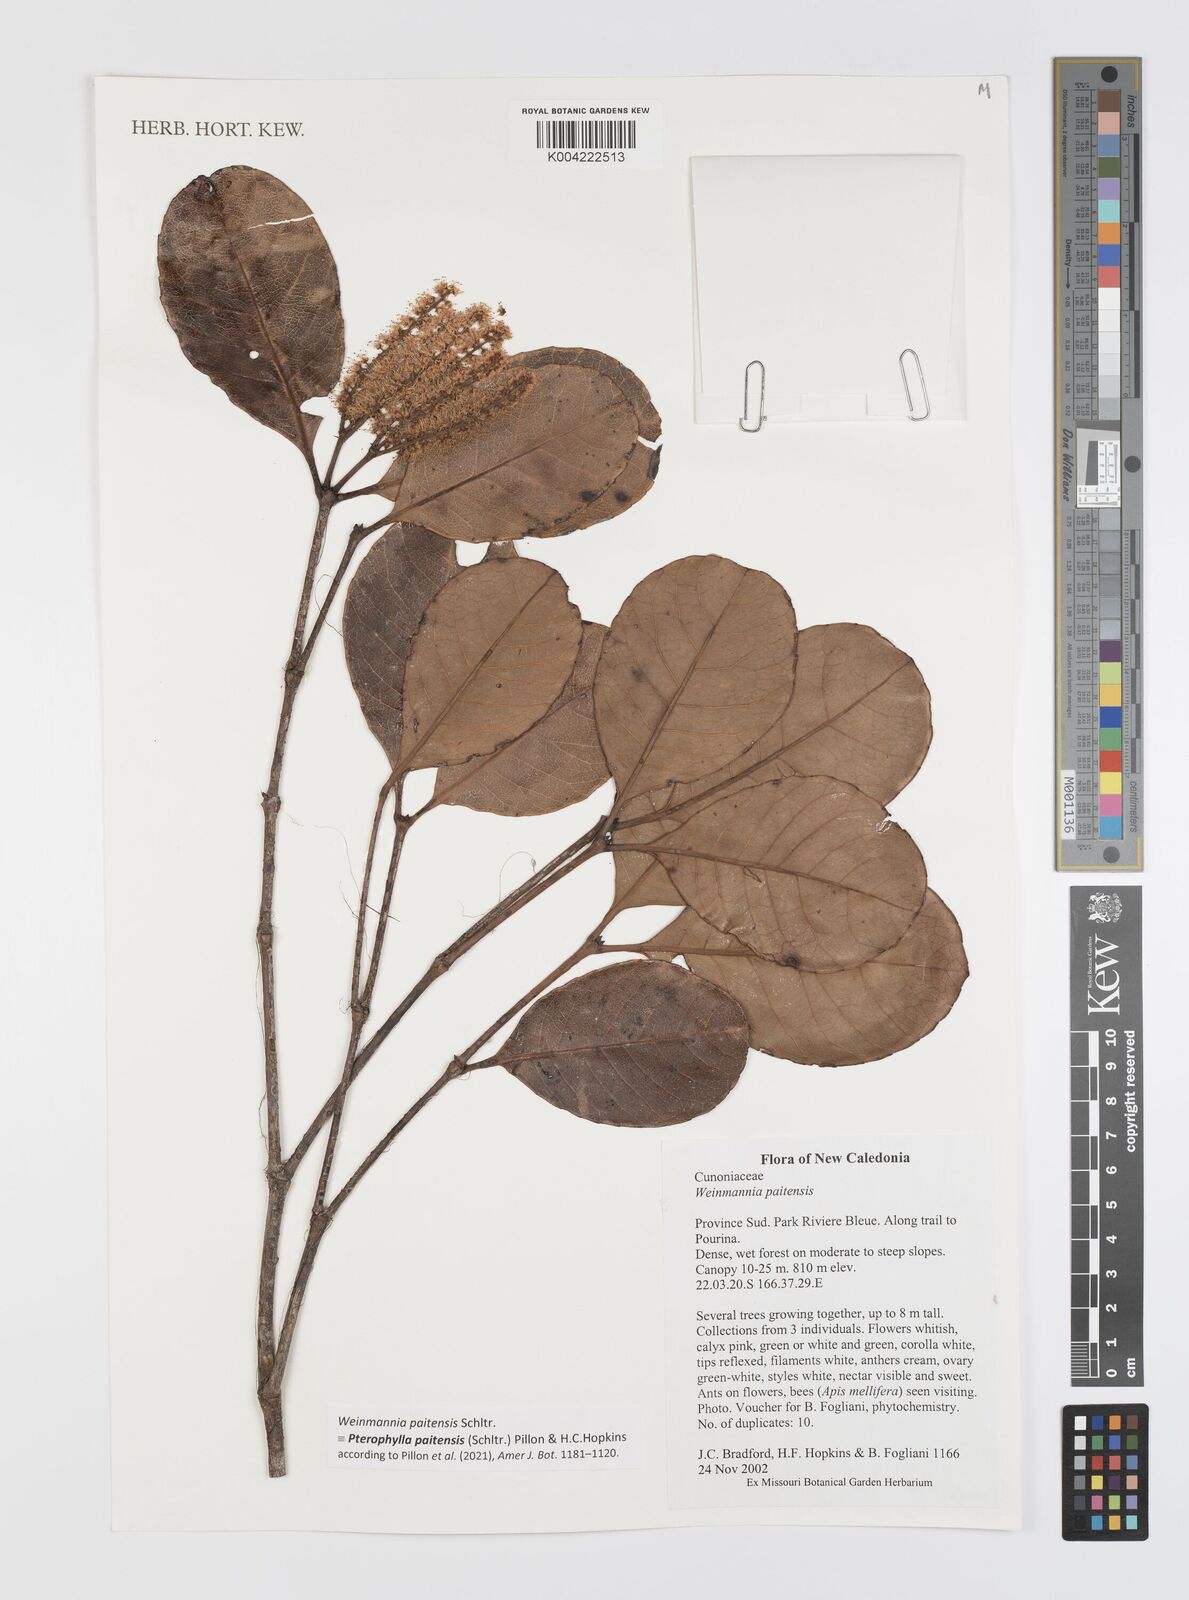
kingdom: Plantae
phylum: Tracheophyta
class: Magnoliopsida
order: Oxalidales
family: Cunoniaceae
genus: Pterophylla
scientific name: Pterophylla paitensis
